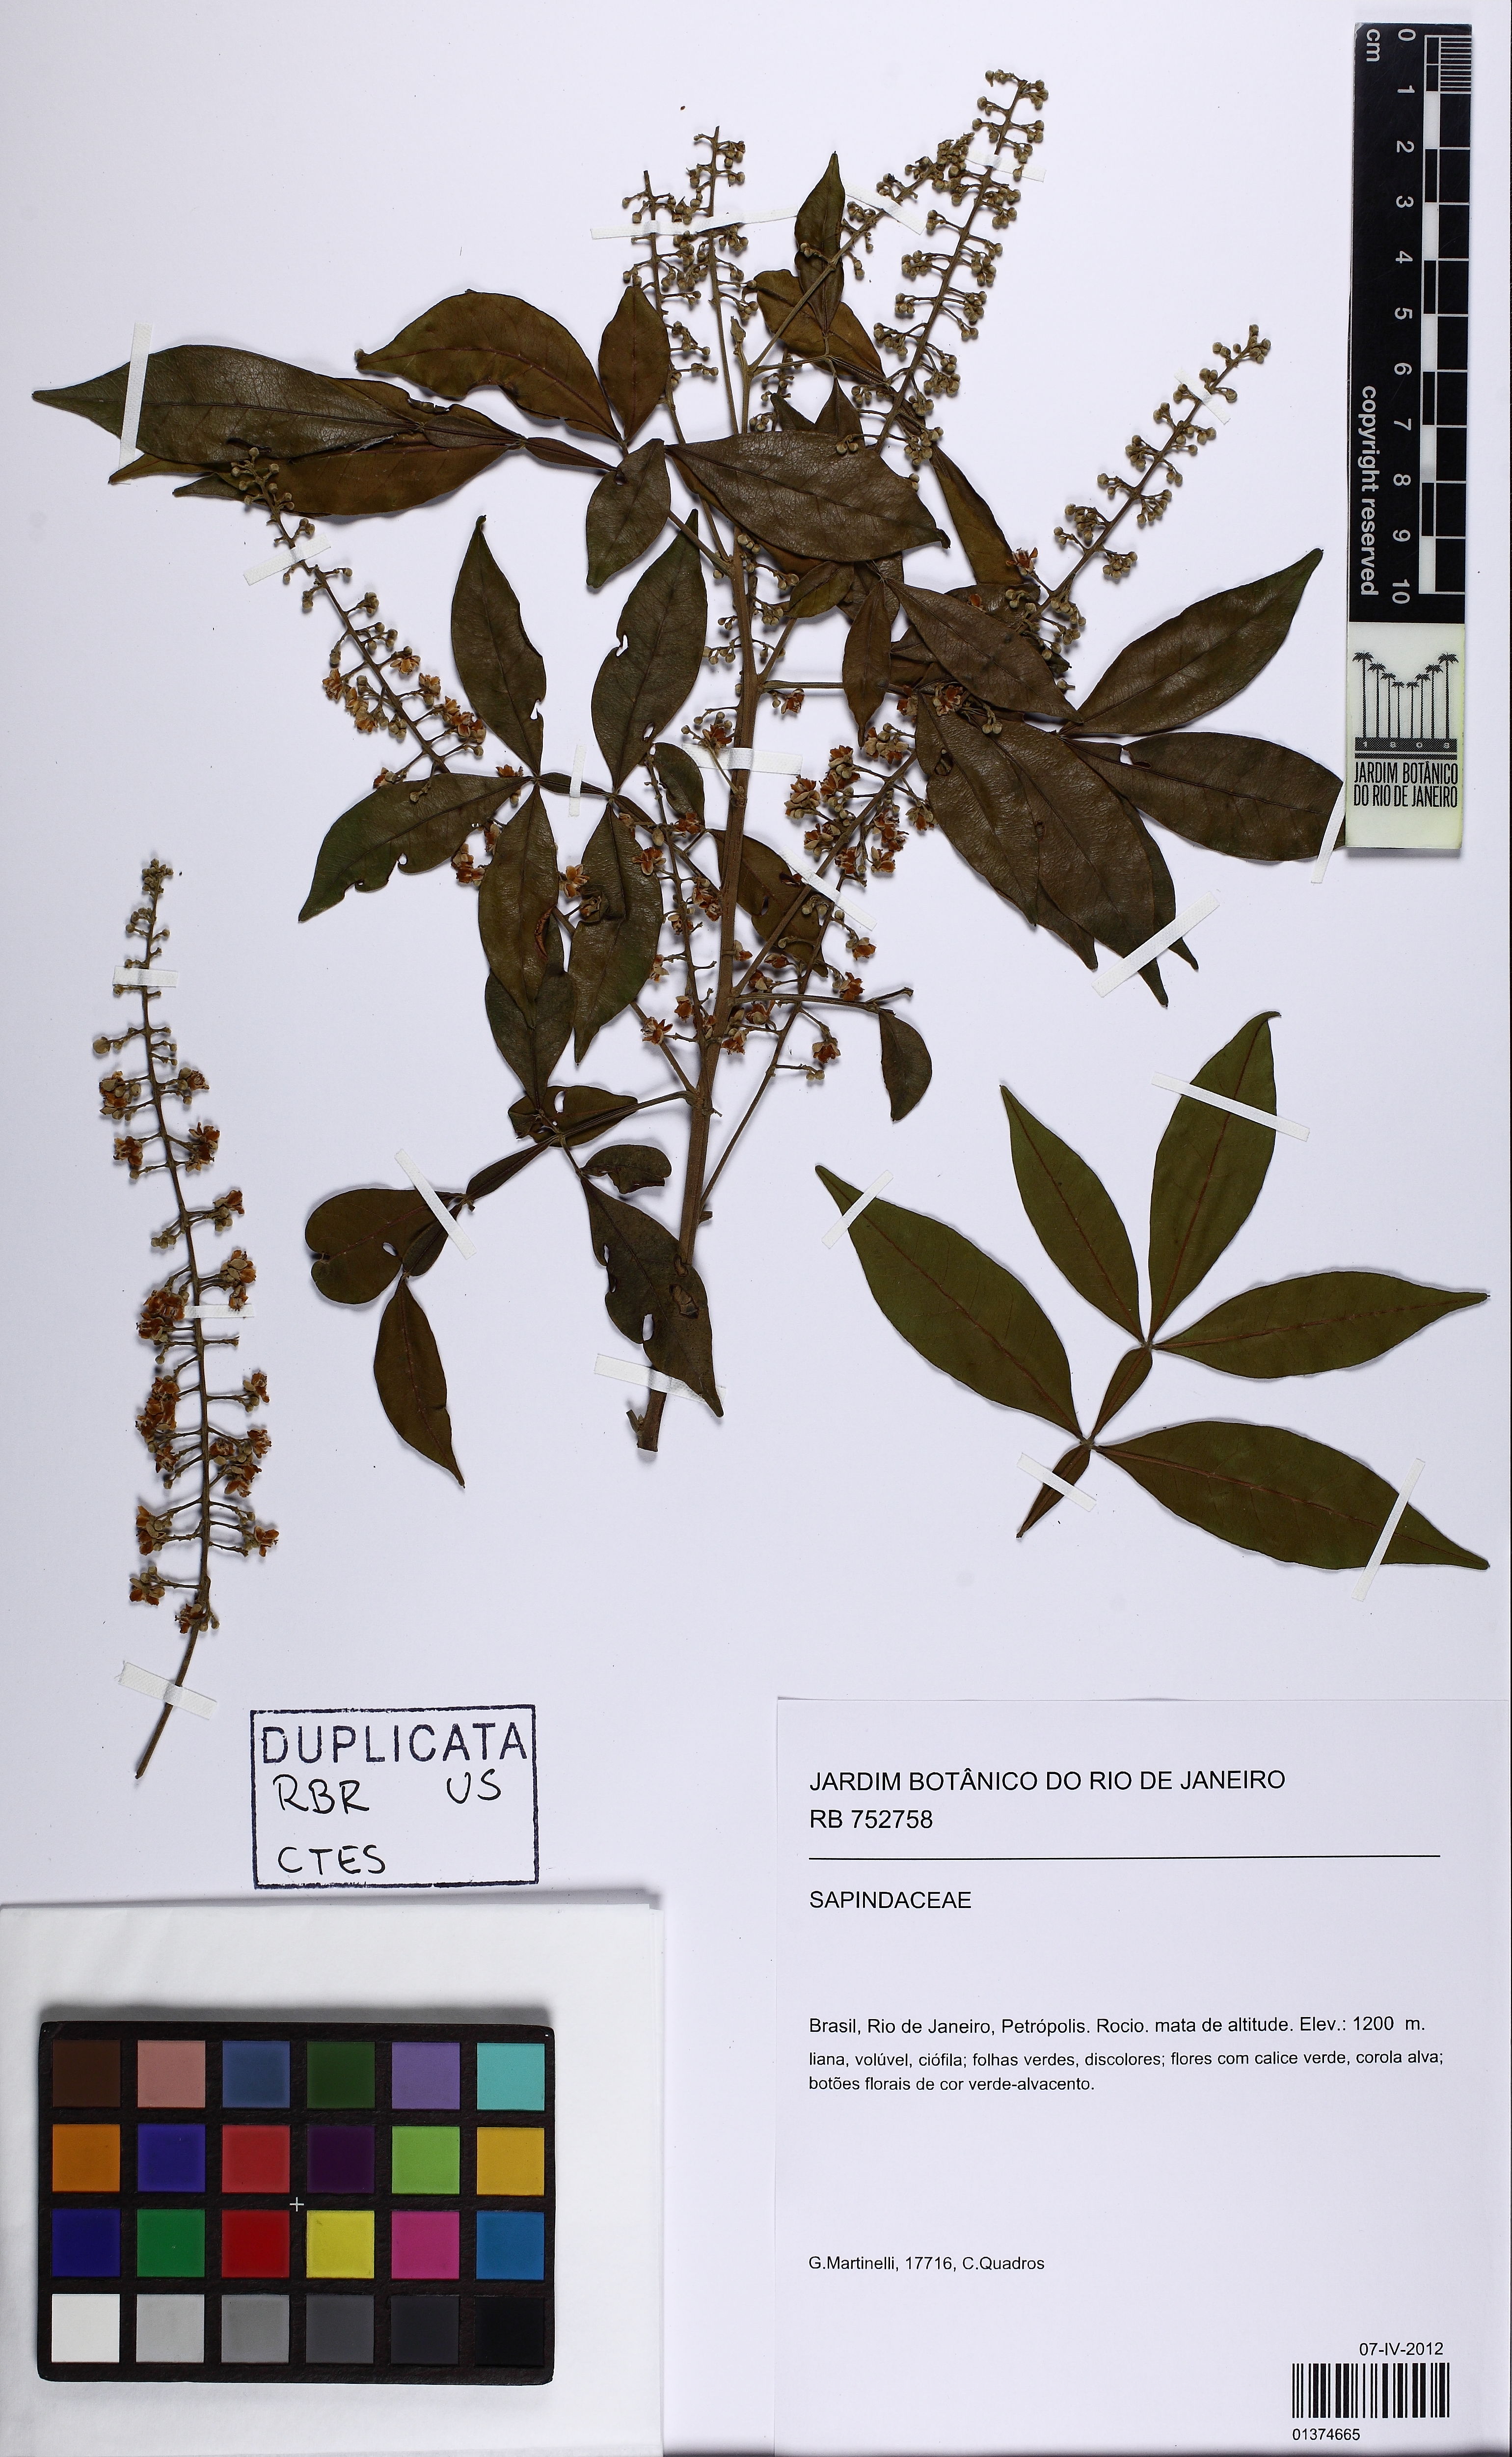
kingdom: Plantae
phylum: Tracheophyta
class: Magnoliopsida
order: Sapindales
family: Sapindaceae
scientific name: Sapindaceae
